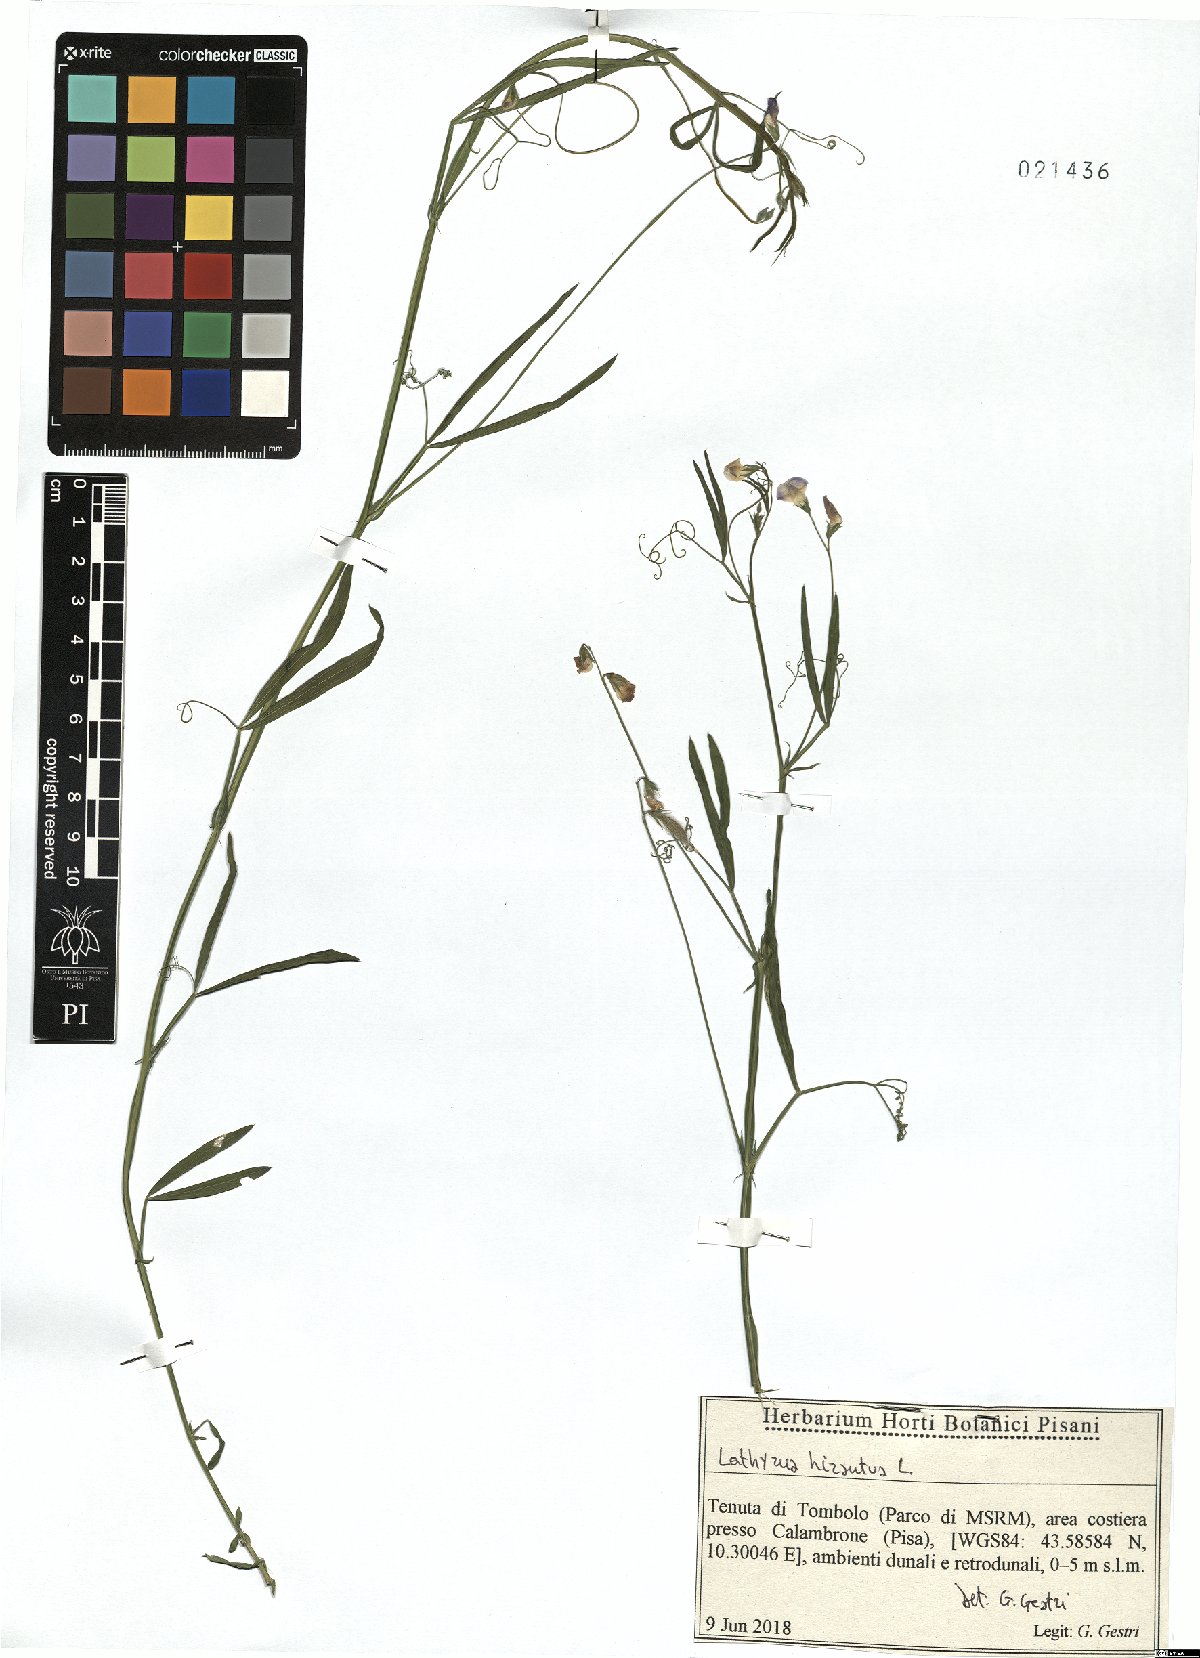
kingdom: Plantae
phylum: Tracheophyta
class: Magnoliopsida
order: Fabales
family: Fabaceae
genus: Lathyrus
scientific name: Lathyrus hirsutus
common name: Hairy vetchling
